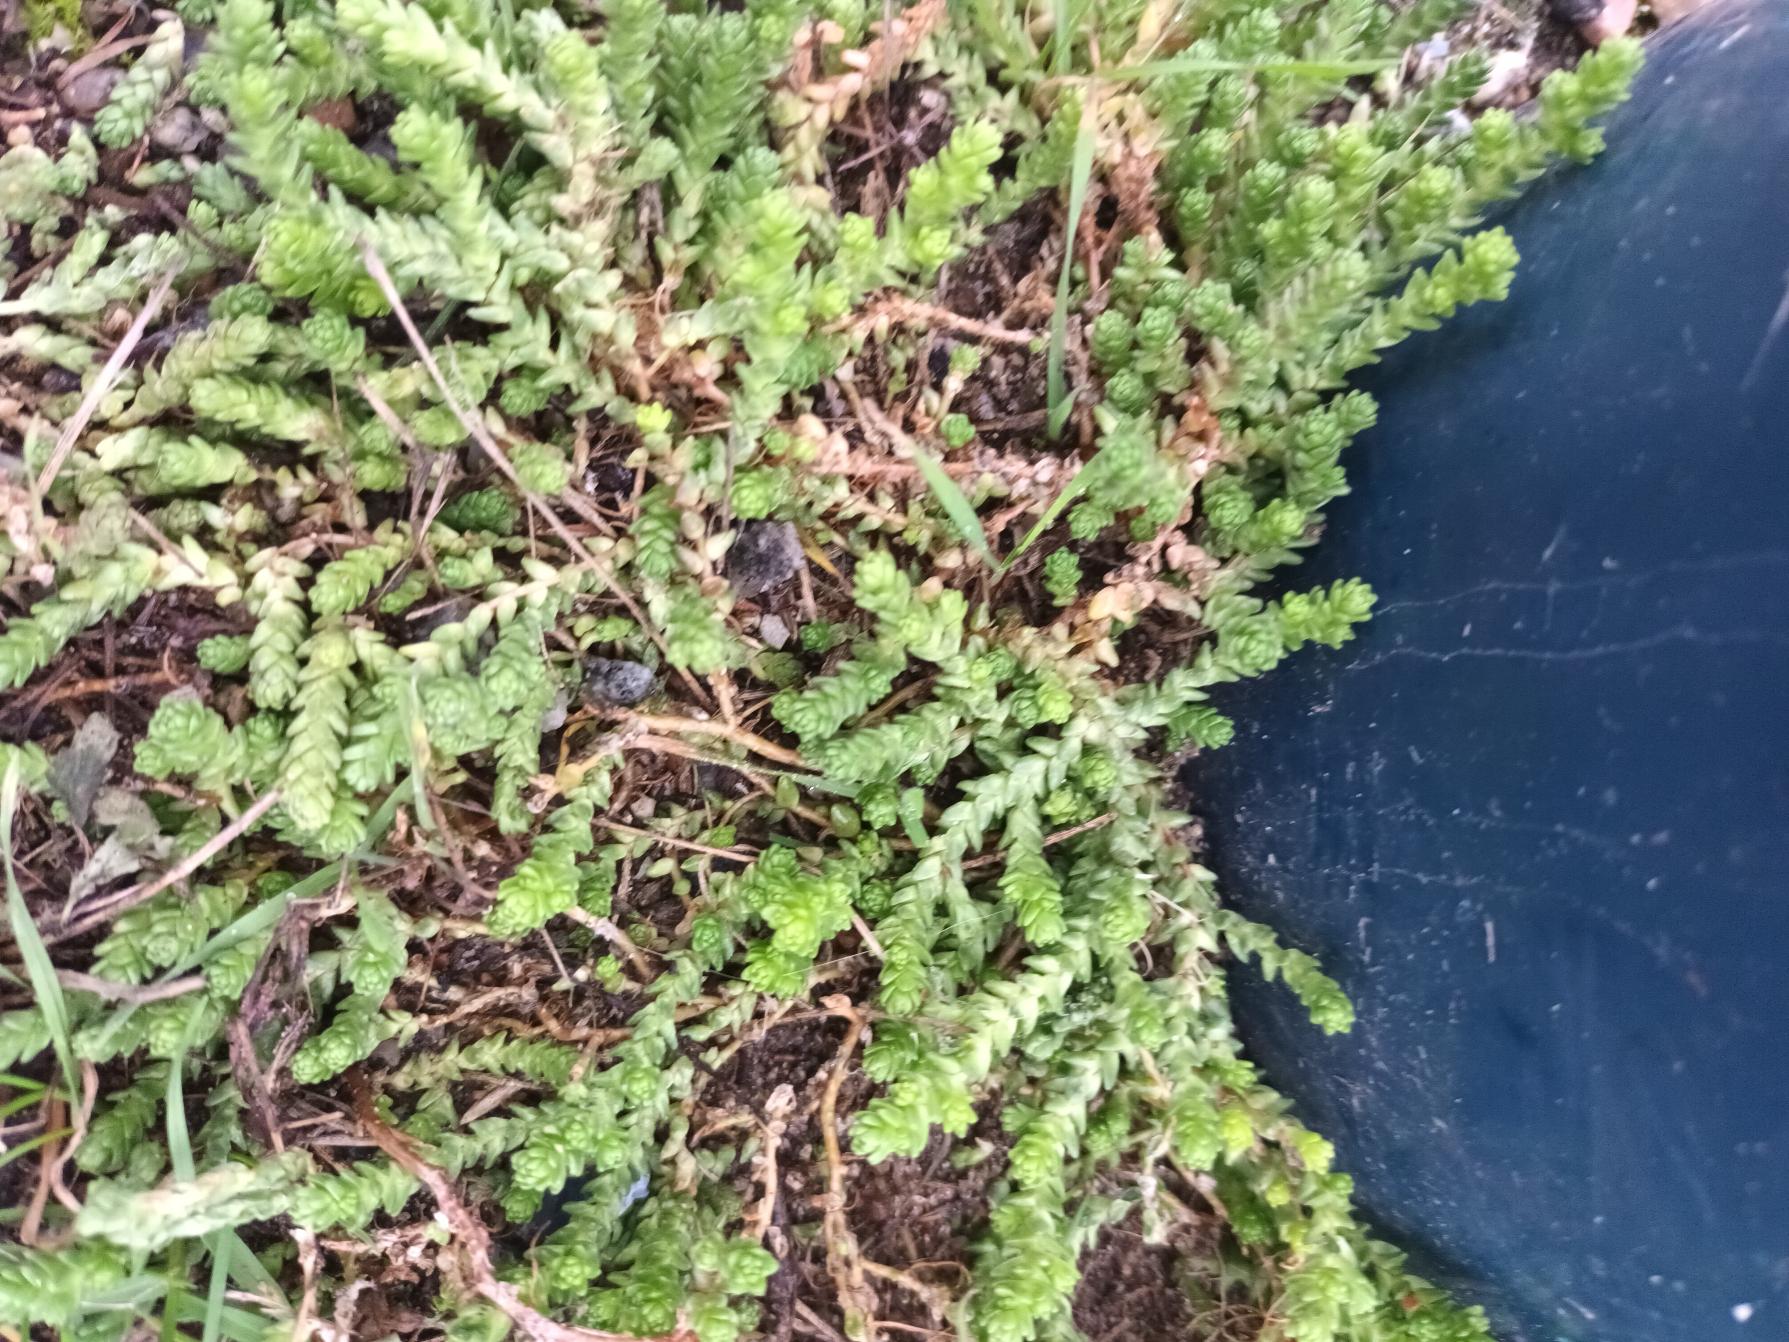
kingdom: Plantae
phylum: Tracheophyta
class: Magnoliopsida
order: Saxifragales
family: Crassulaceae
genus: Sedum
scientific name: Sedum acre
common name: Bidende stenurt
